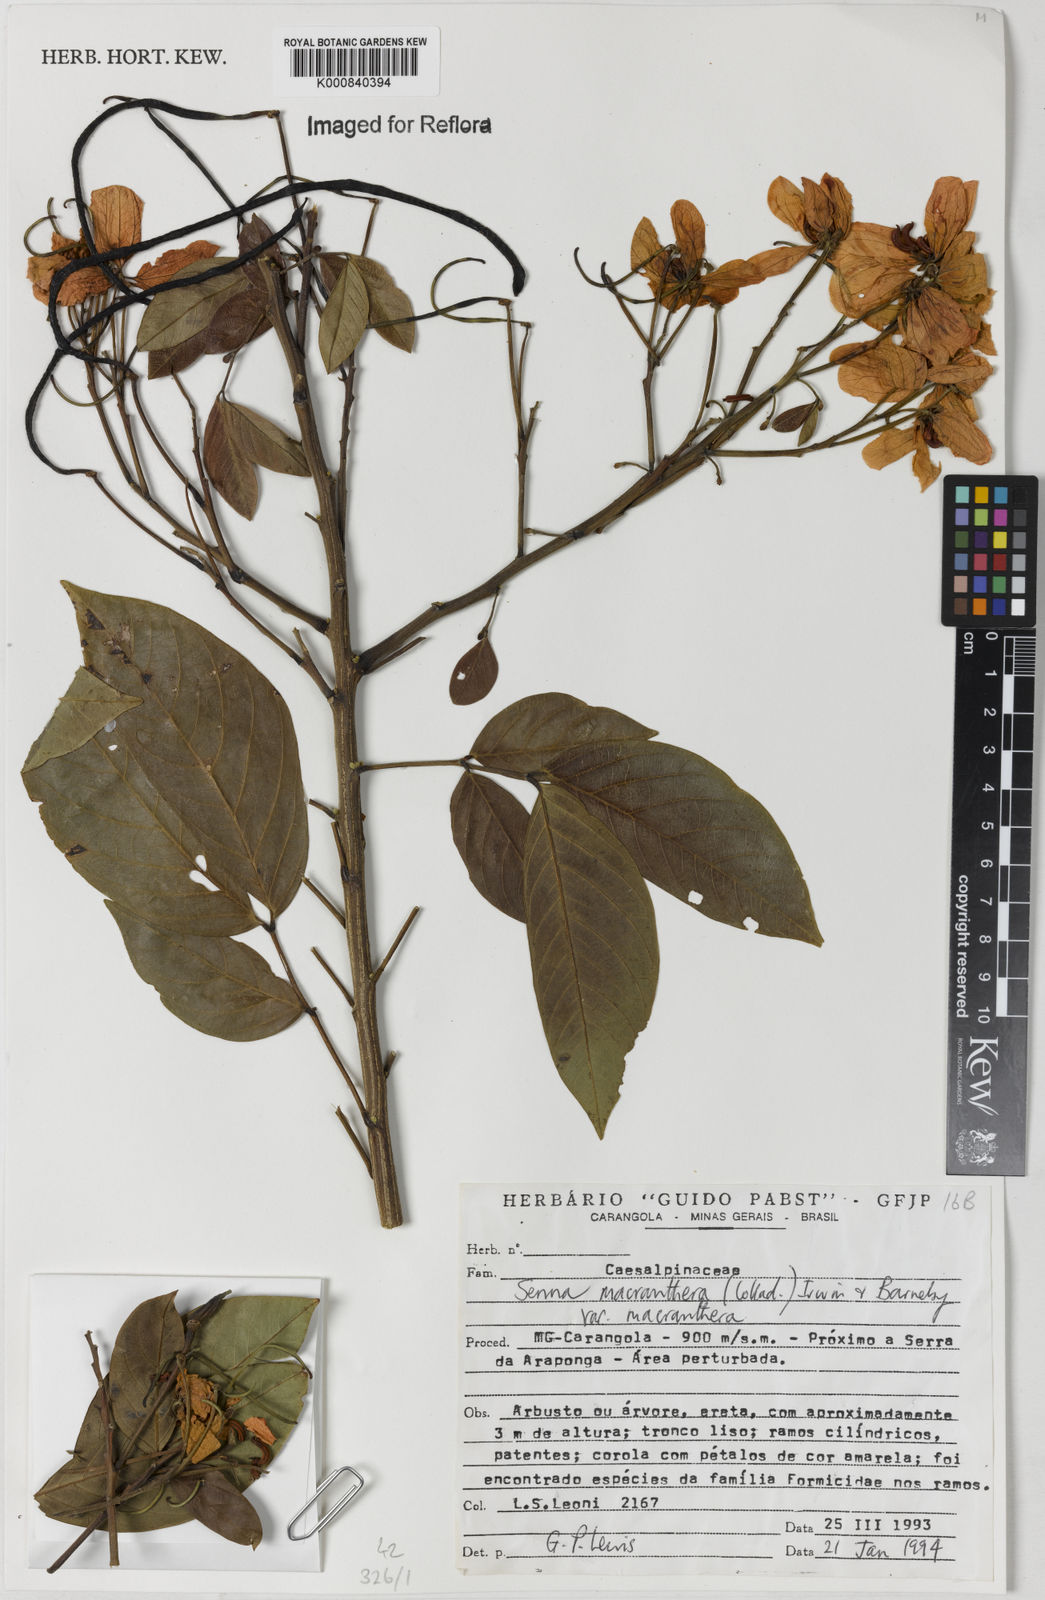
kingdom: Plantae
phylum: Tracheophyta
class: Magnoliopsida
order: Fabales
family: Fabaceae
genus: Senna
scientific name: Senna macranthera
